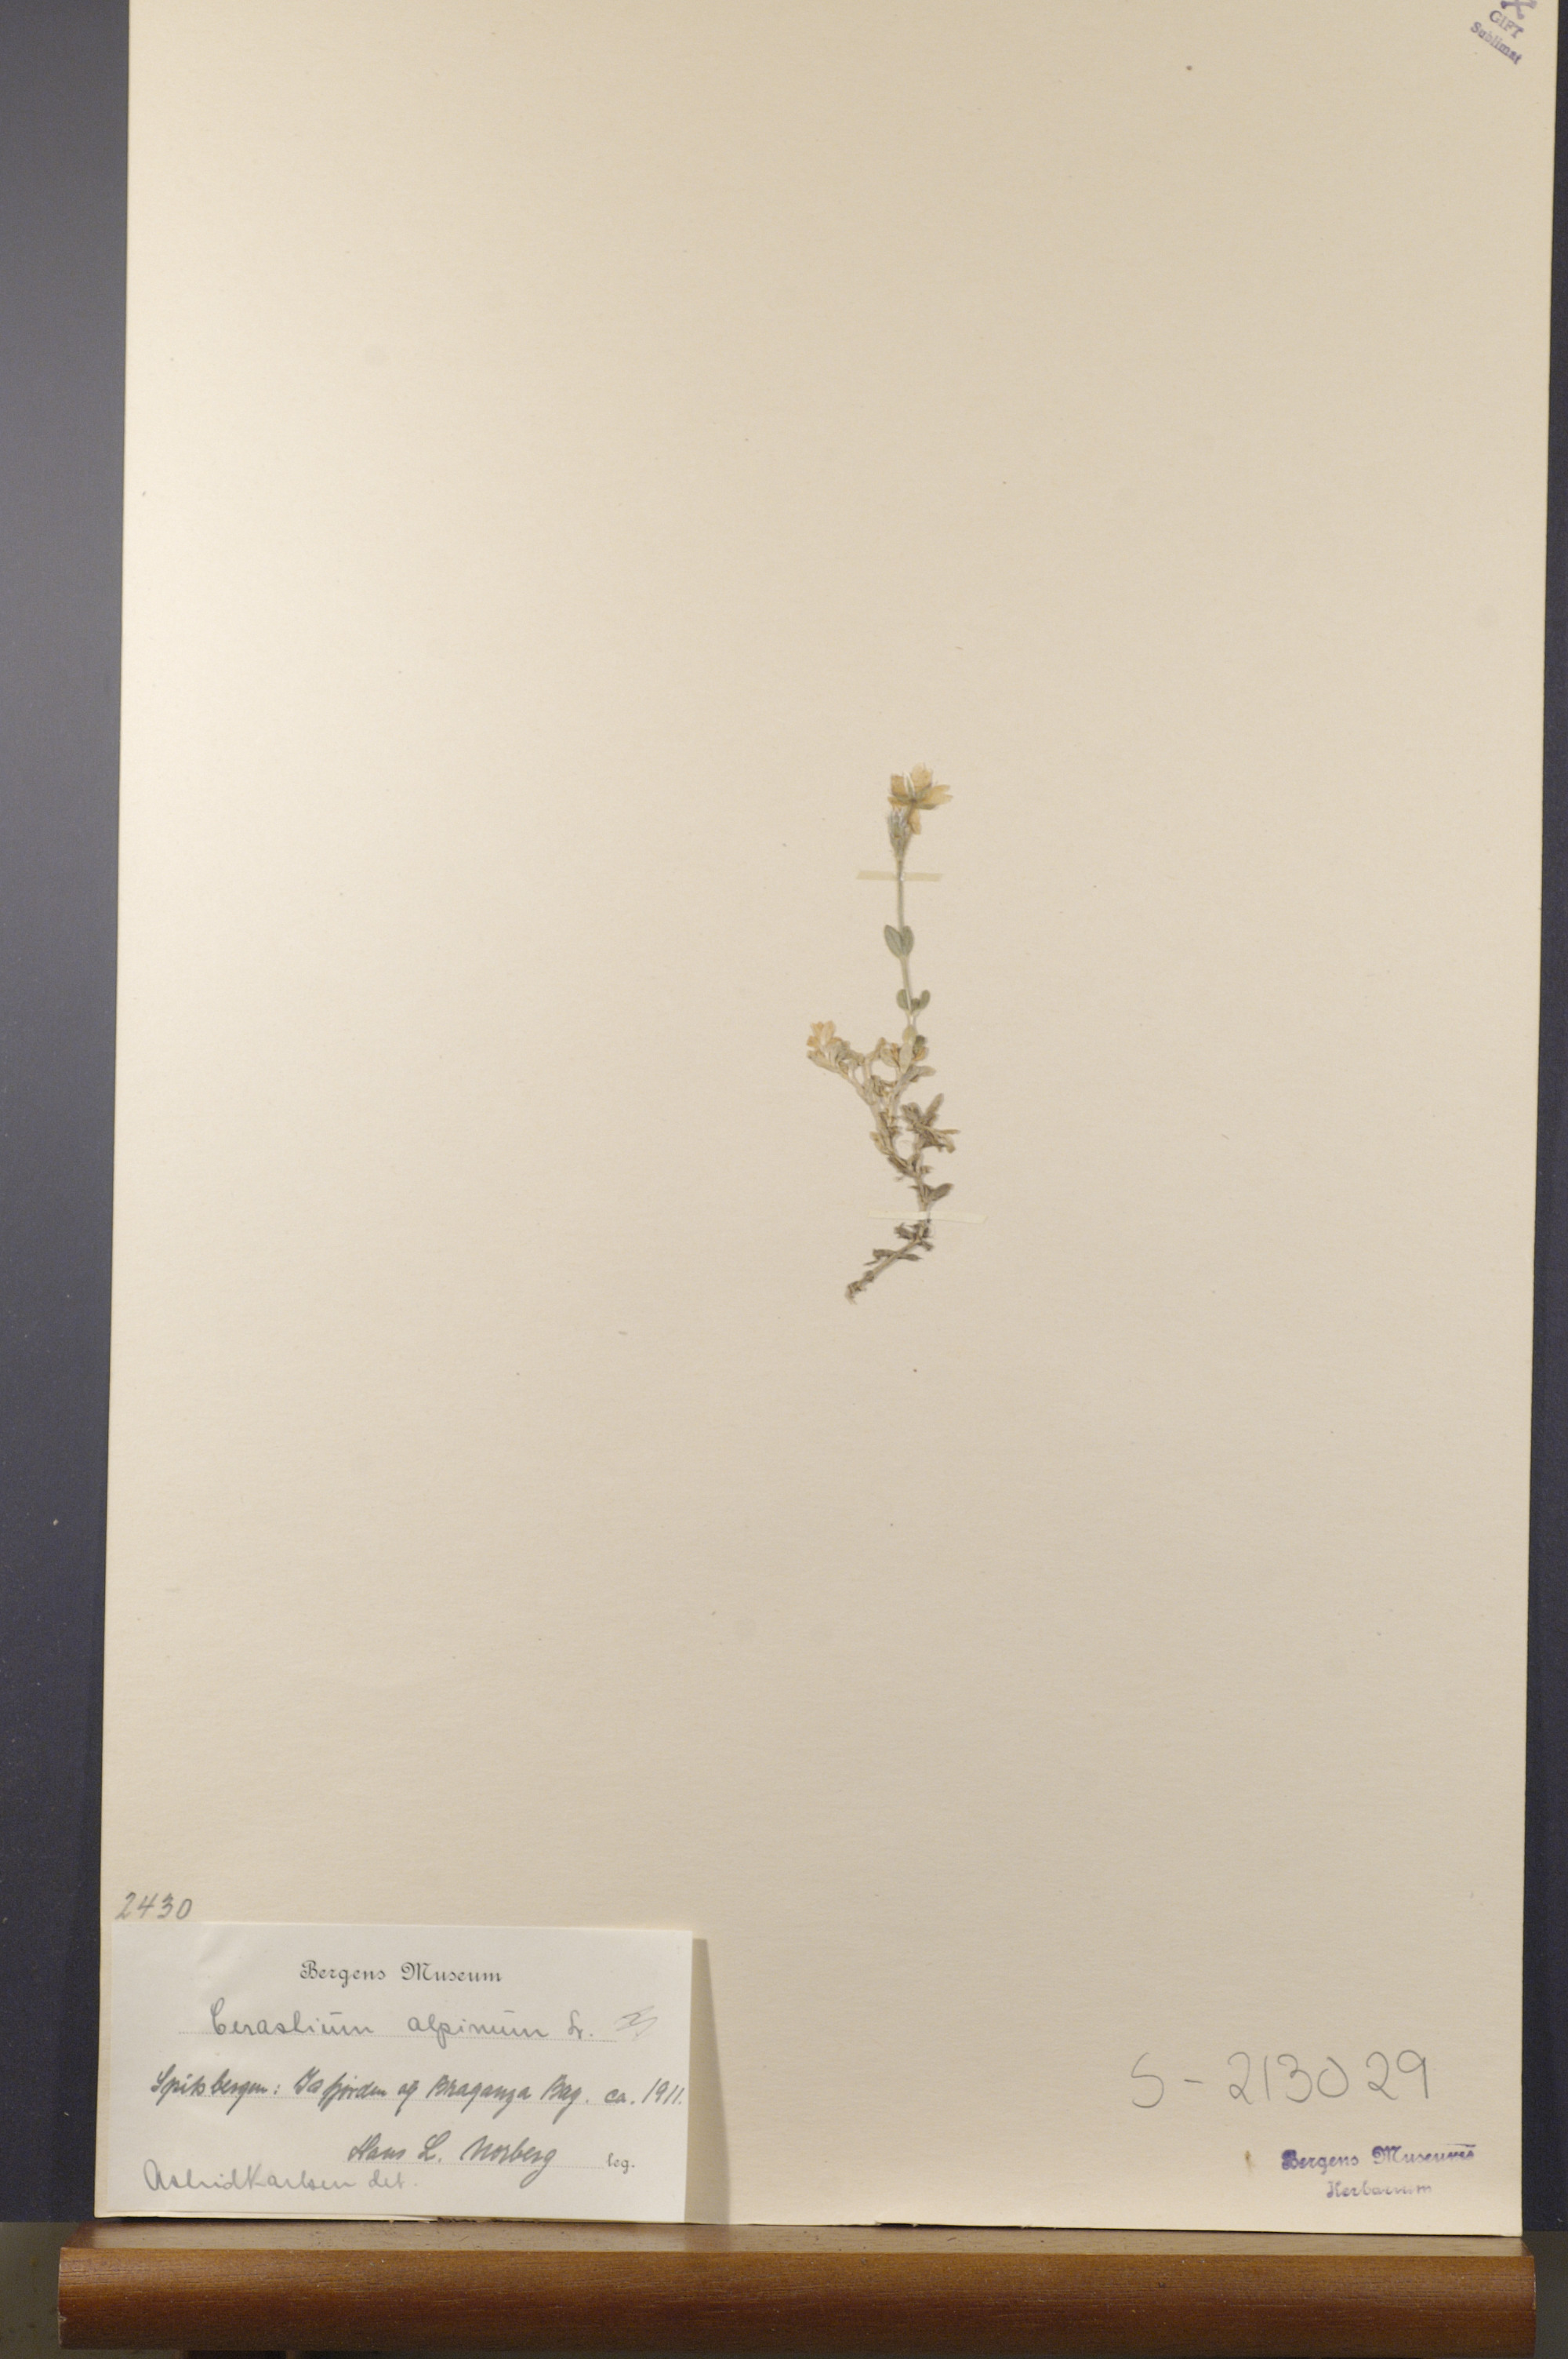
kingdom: Plantae
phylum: Tracheophyta
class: Magnoliopsida
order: Caryophyllales
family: Caryophyllaceae
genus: Cerastium
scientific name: Cerastium alpinum
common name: Alpine mouse-ear
